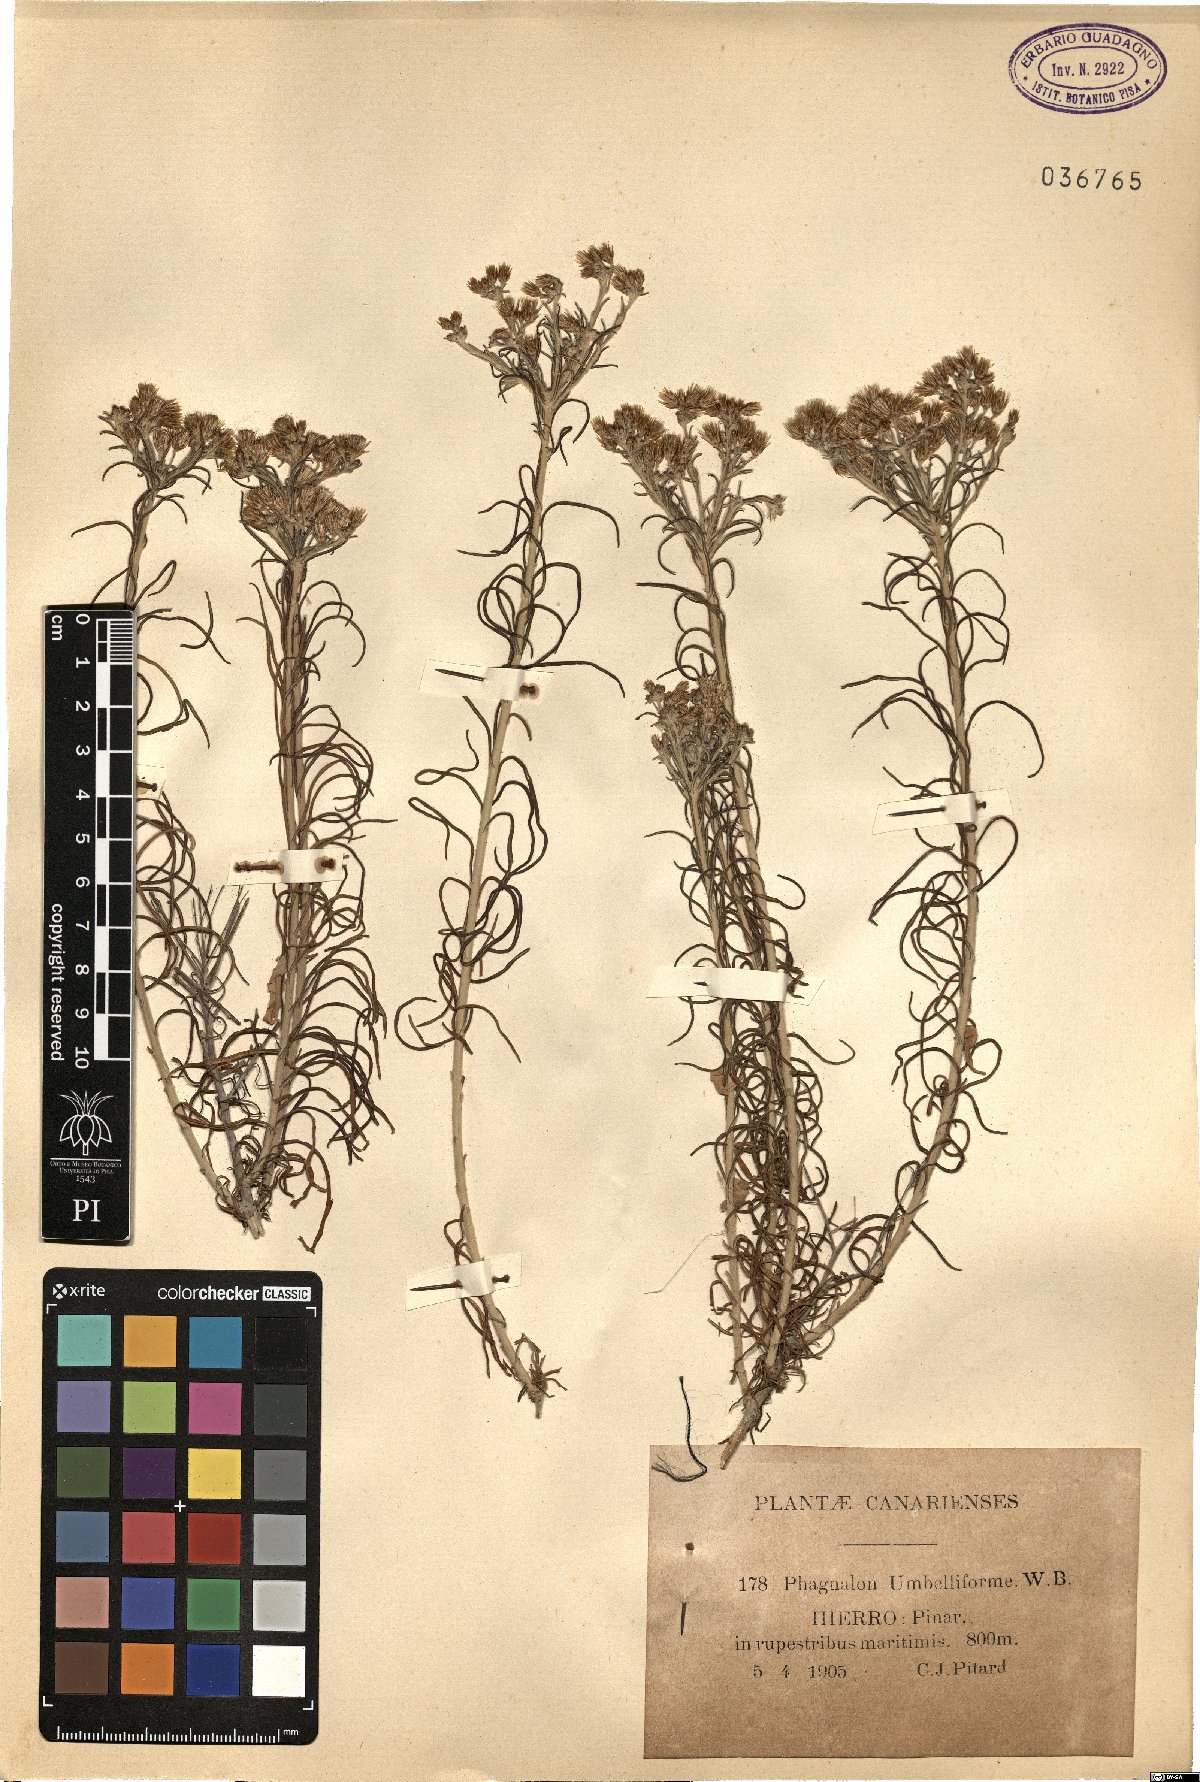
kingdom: Plantae
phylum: Tracheophyta
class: Magnoliopsida
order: Asterales
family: Asteraceae
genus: Phagnalon
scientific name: Phagnalon umbelliforme
